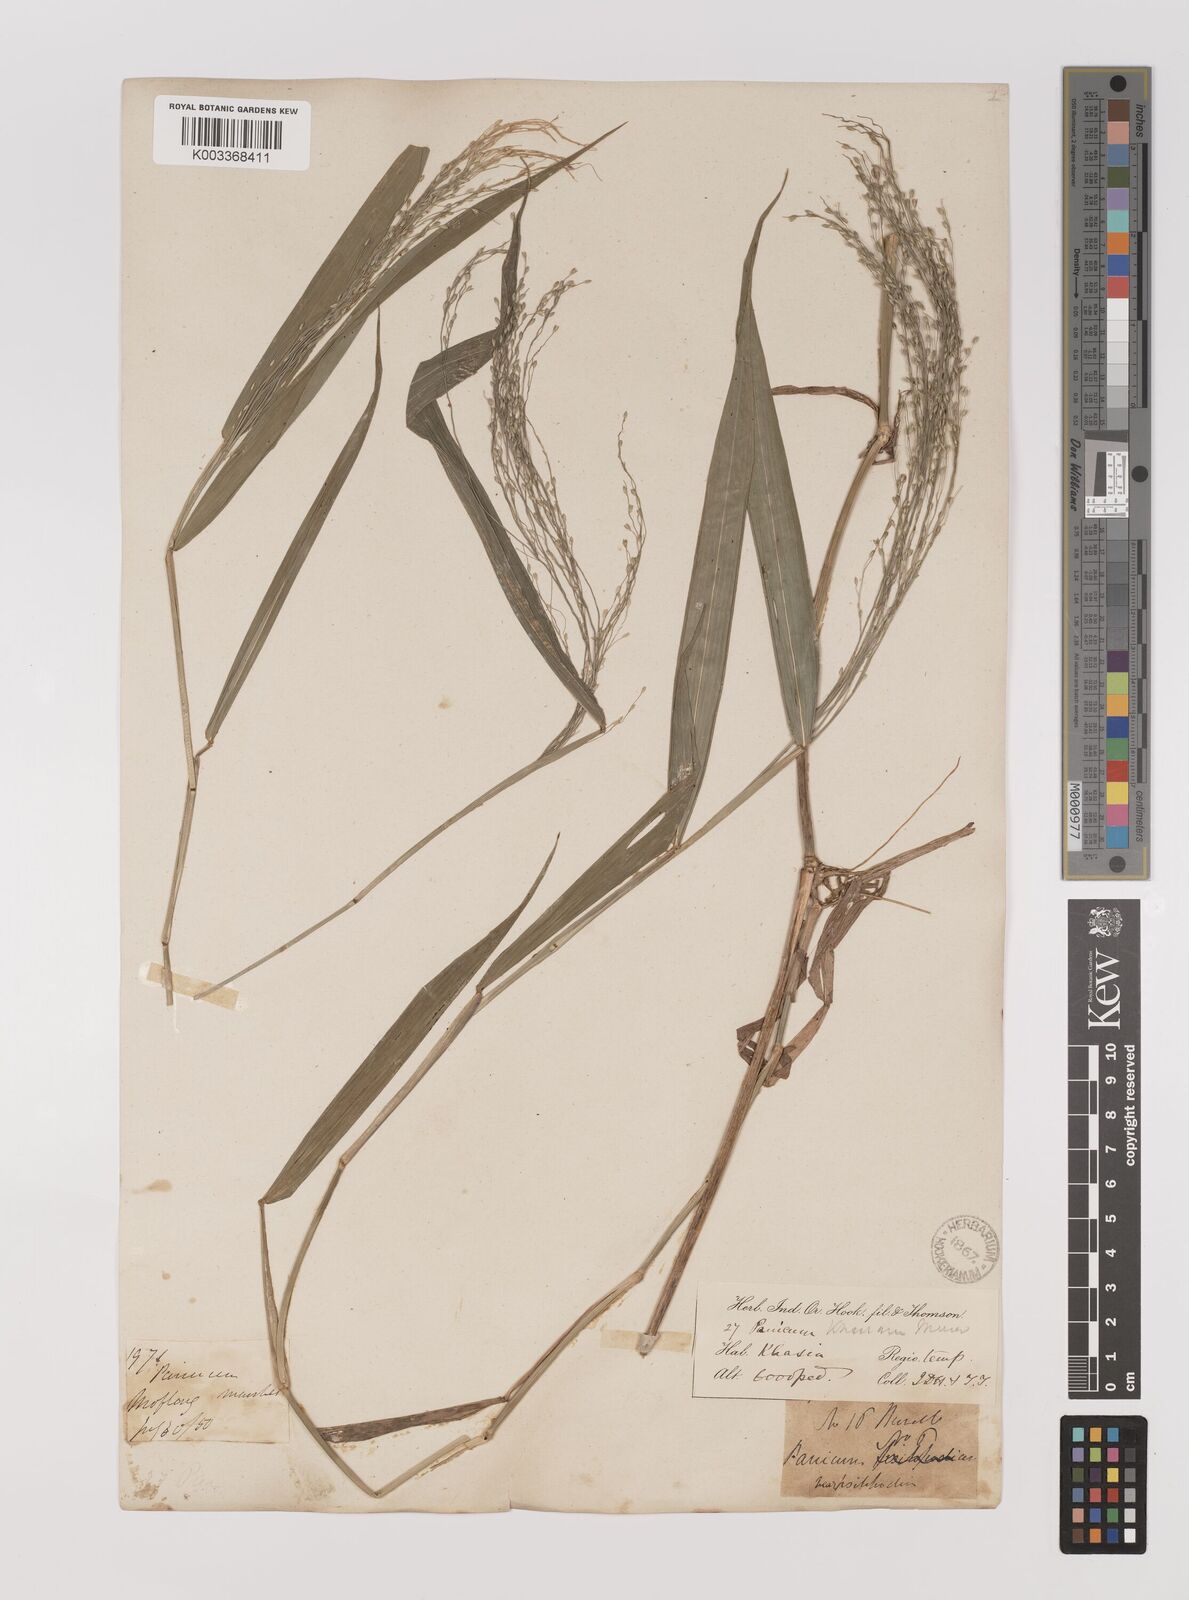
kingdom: Plantae
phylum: Tracheophyta
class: Liliopsida
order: Poales
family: Poaceae
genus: Panicum
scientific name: Panicum khasianum
